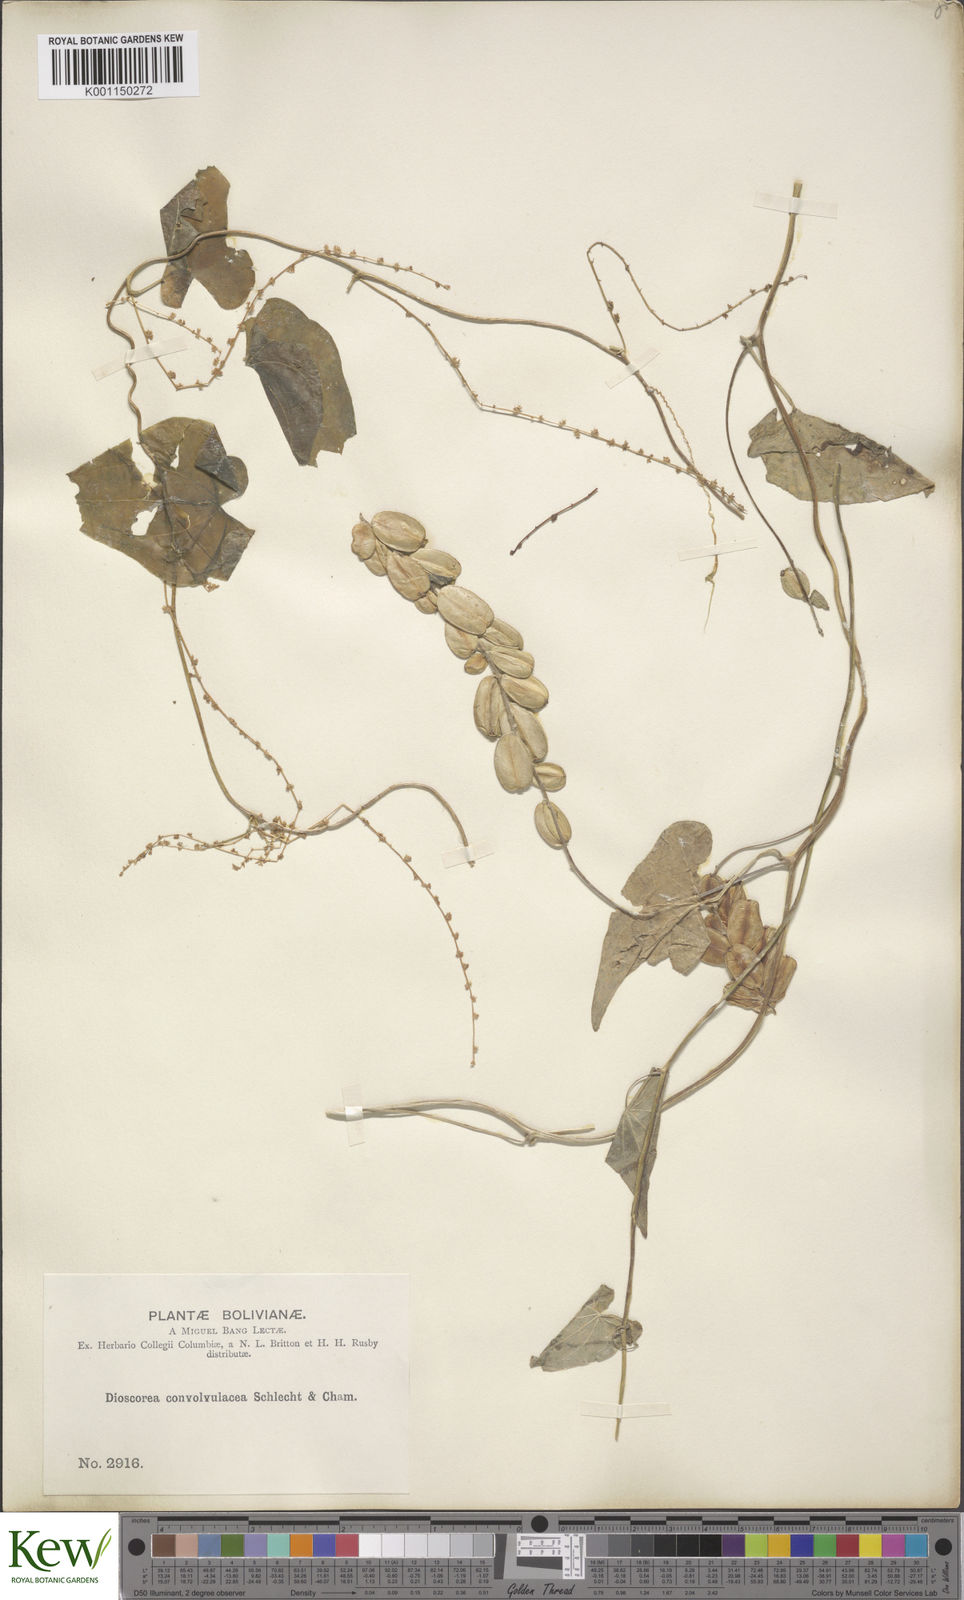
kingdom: Plantae
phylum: Tracheophyta
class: Liliopsida
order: Dioscoreales
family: Dioscoreaceae
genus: Dioscorea
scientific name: Dioscorea piperifolia
